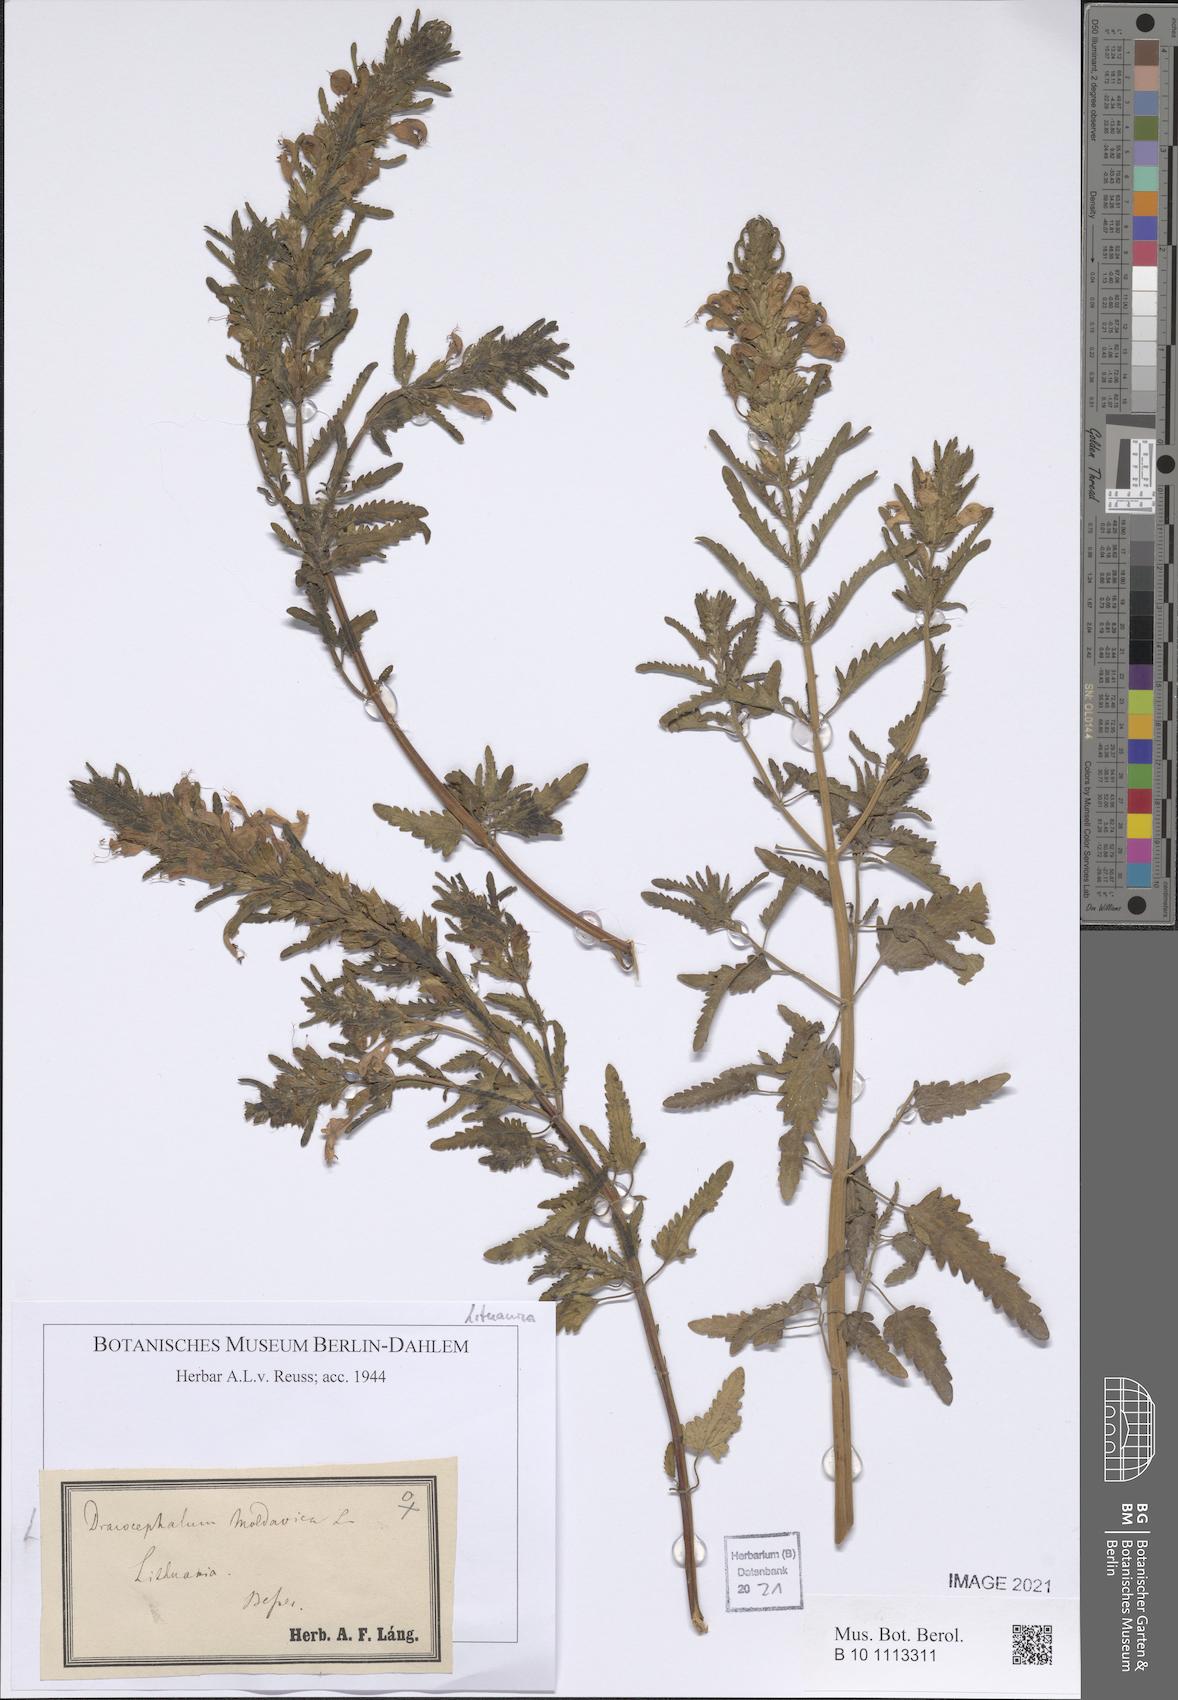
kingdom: Plantae
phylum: Tracheophyta
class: Magnoliopsida
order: Lamiales
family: Lamiaceae
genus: Dracocephalum
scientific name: Dracocephalum moldavica
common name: Moldavian dragonhead
